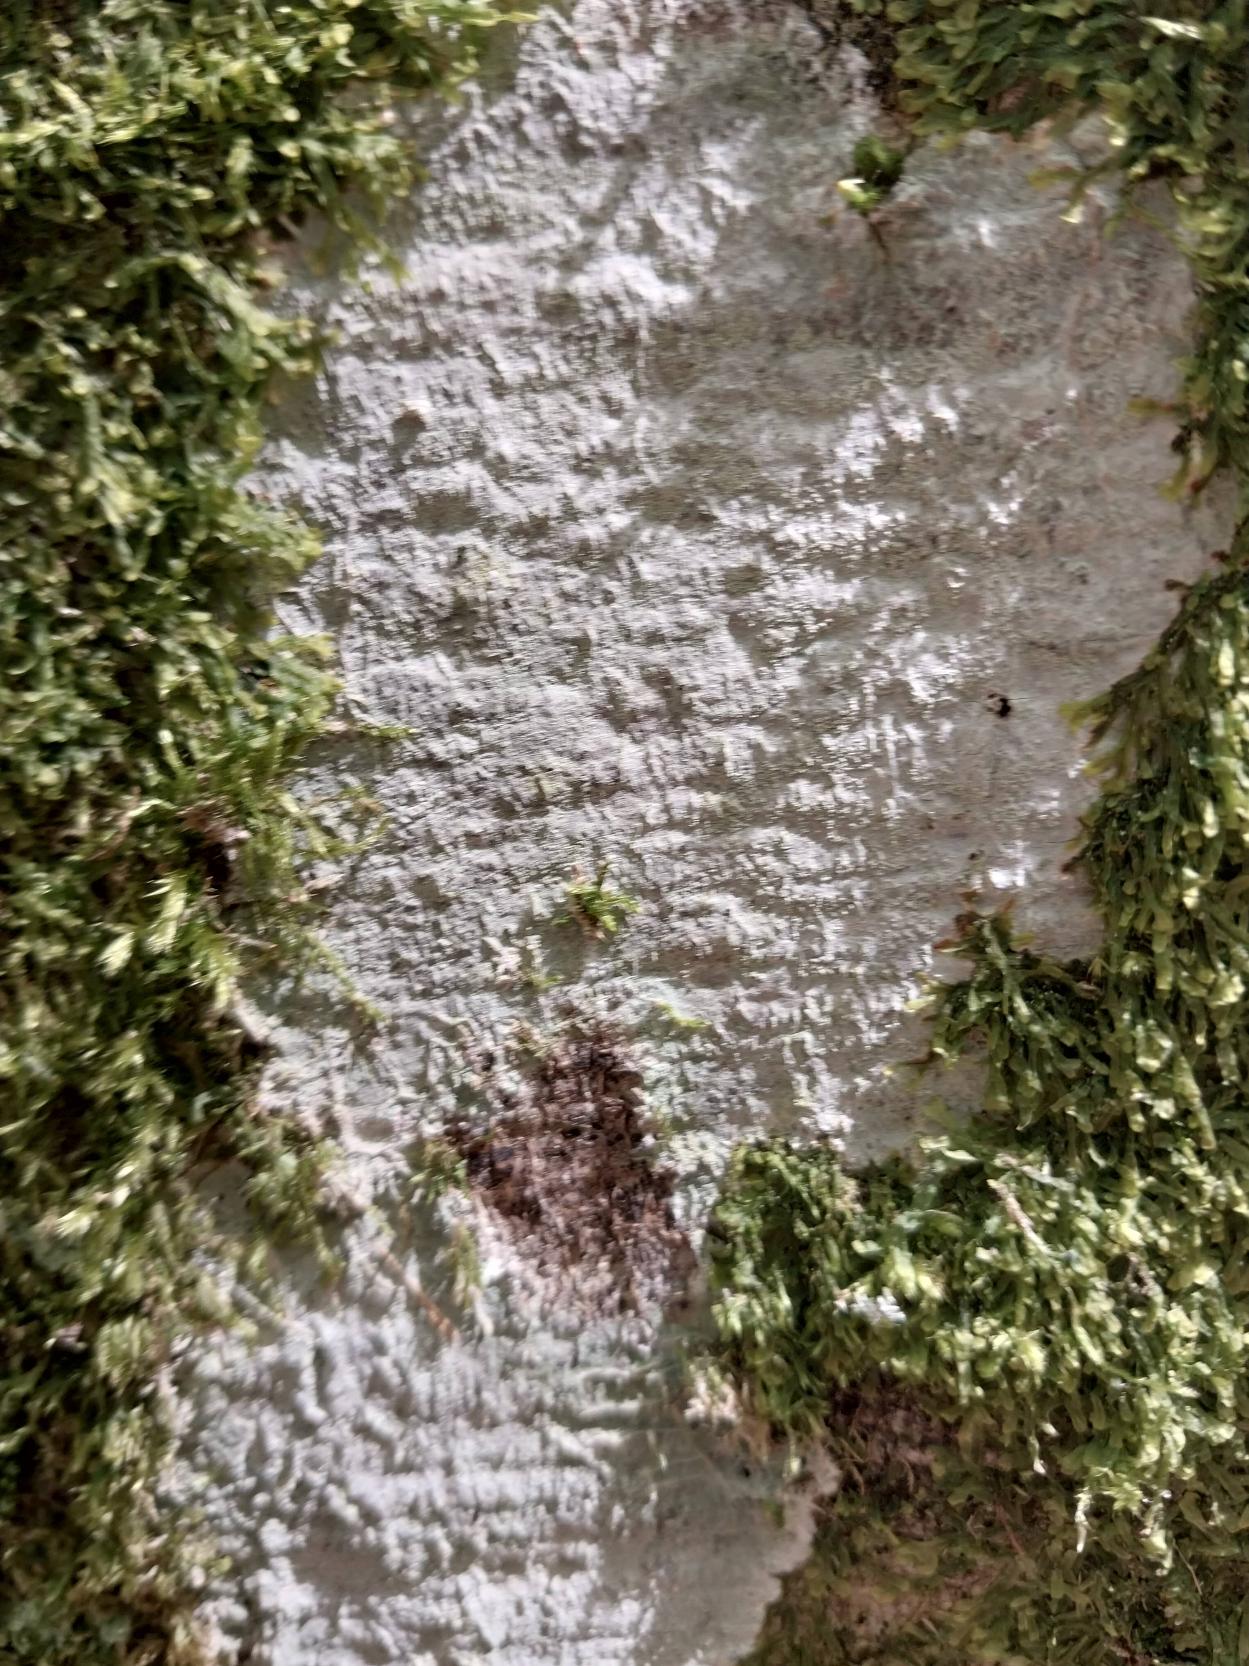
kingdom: Fungi
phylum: Ascomycota
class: Lecanoromycetes
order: Ostropales
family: Phlyctidaceae
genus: Phlyctis
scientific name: Phlyctis argena
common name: Almindelig sølvlav
